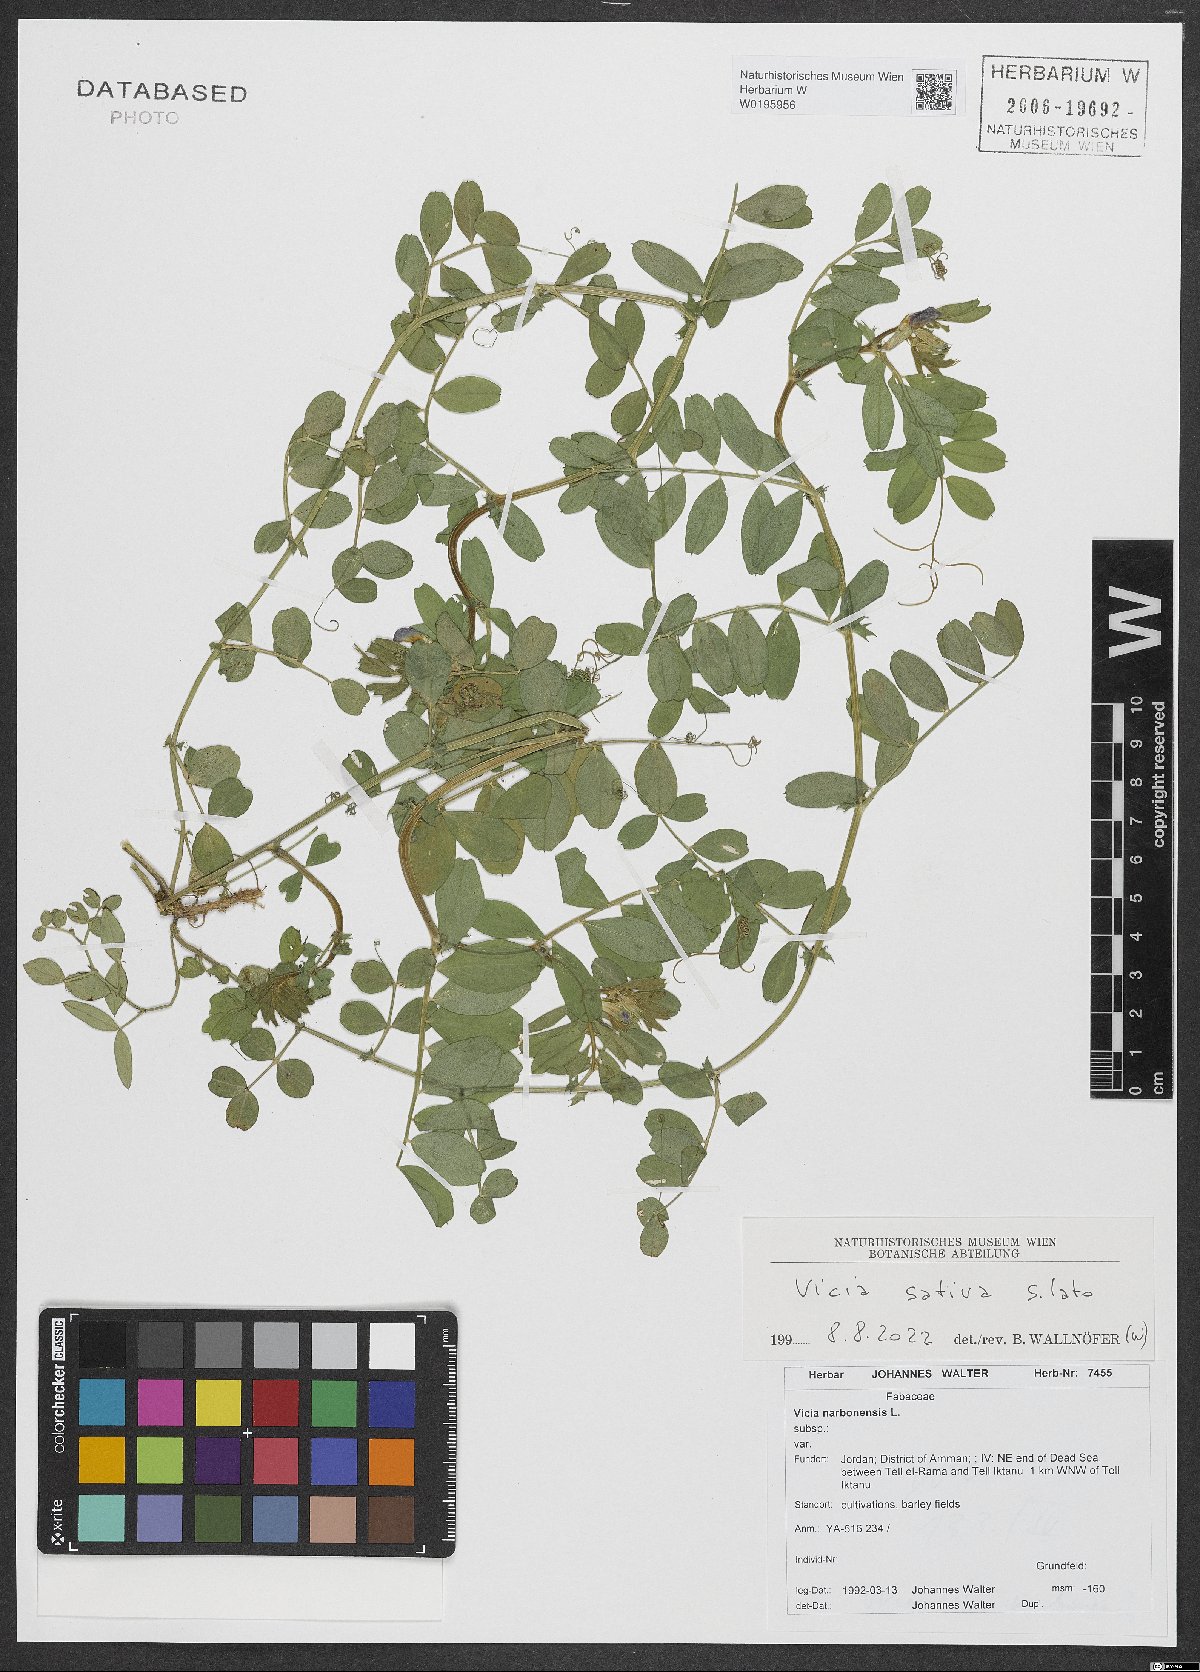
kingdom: Plantae
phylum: Tracheophyta
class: Magnoliopsida
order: Fabales
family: Fabaceae
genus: Vicia
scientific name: Vicia sativa
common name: Garden vetch
